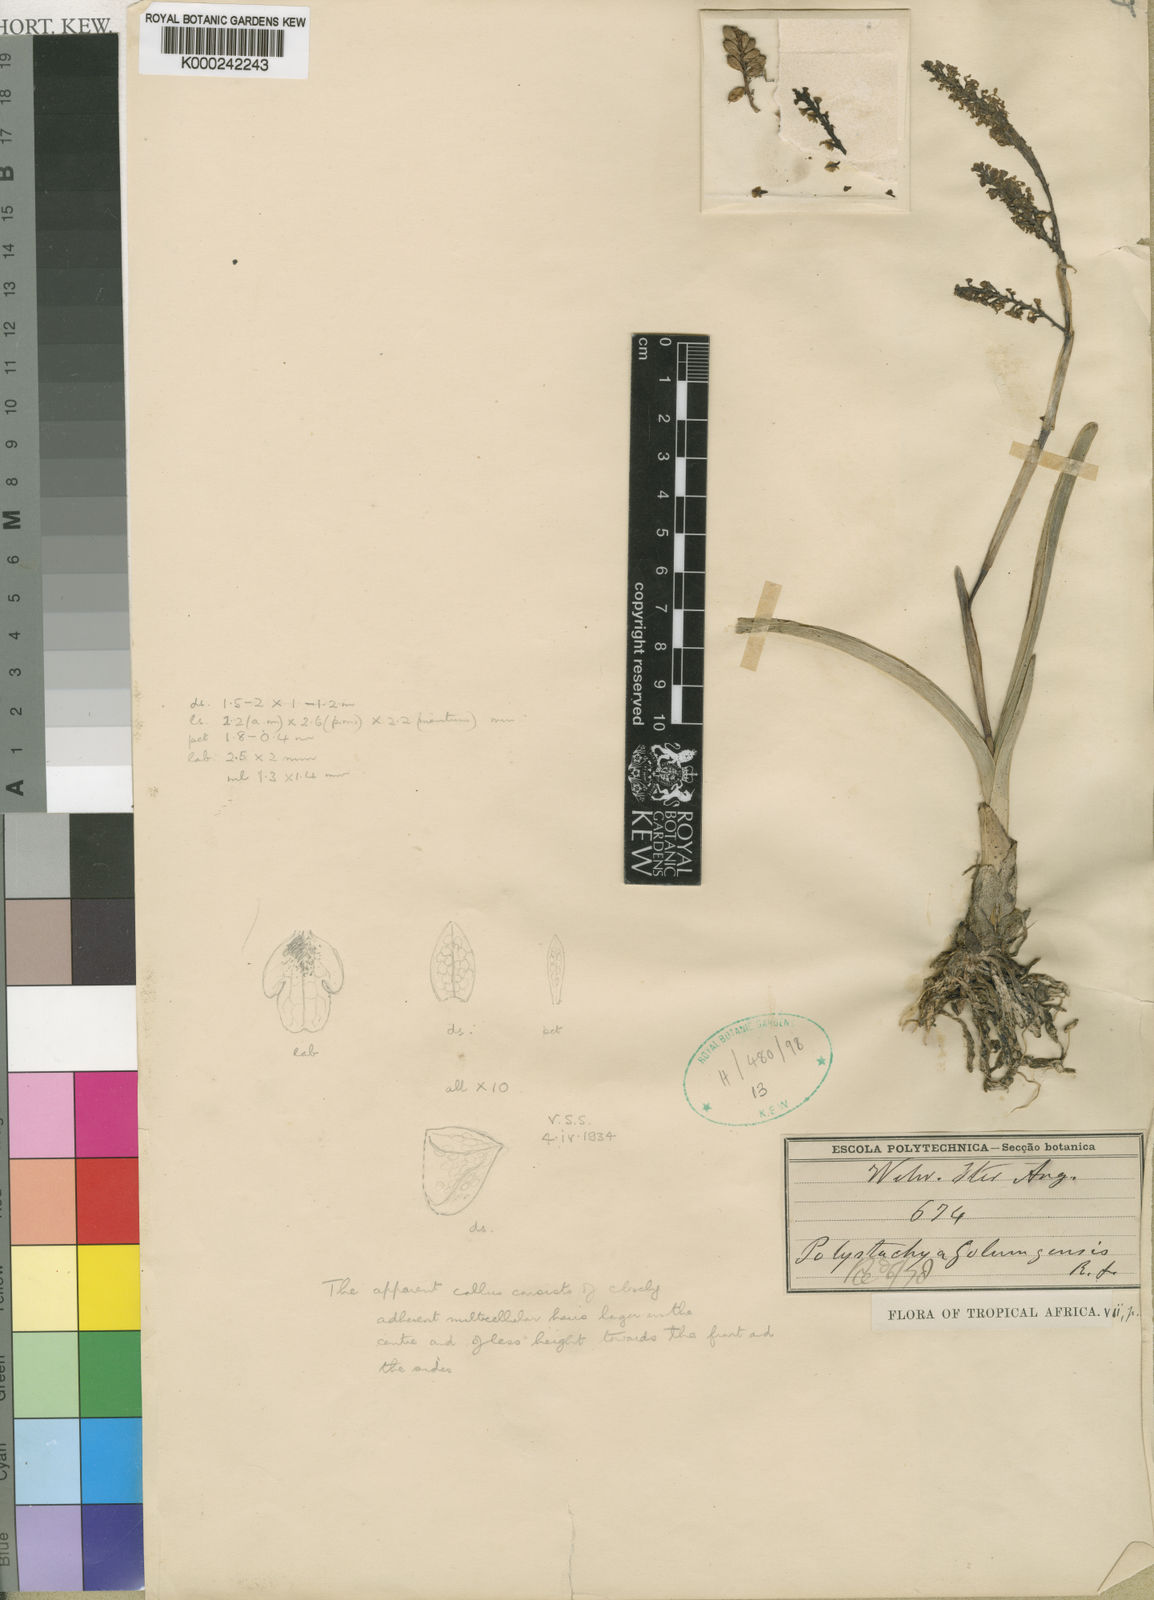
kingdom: Plantae
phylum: Tracheophyta
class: Liliopsida
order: Asparagales
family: Orchidaceae
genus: Polystachya
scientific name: Polystachya golungensis
